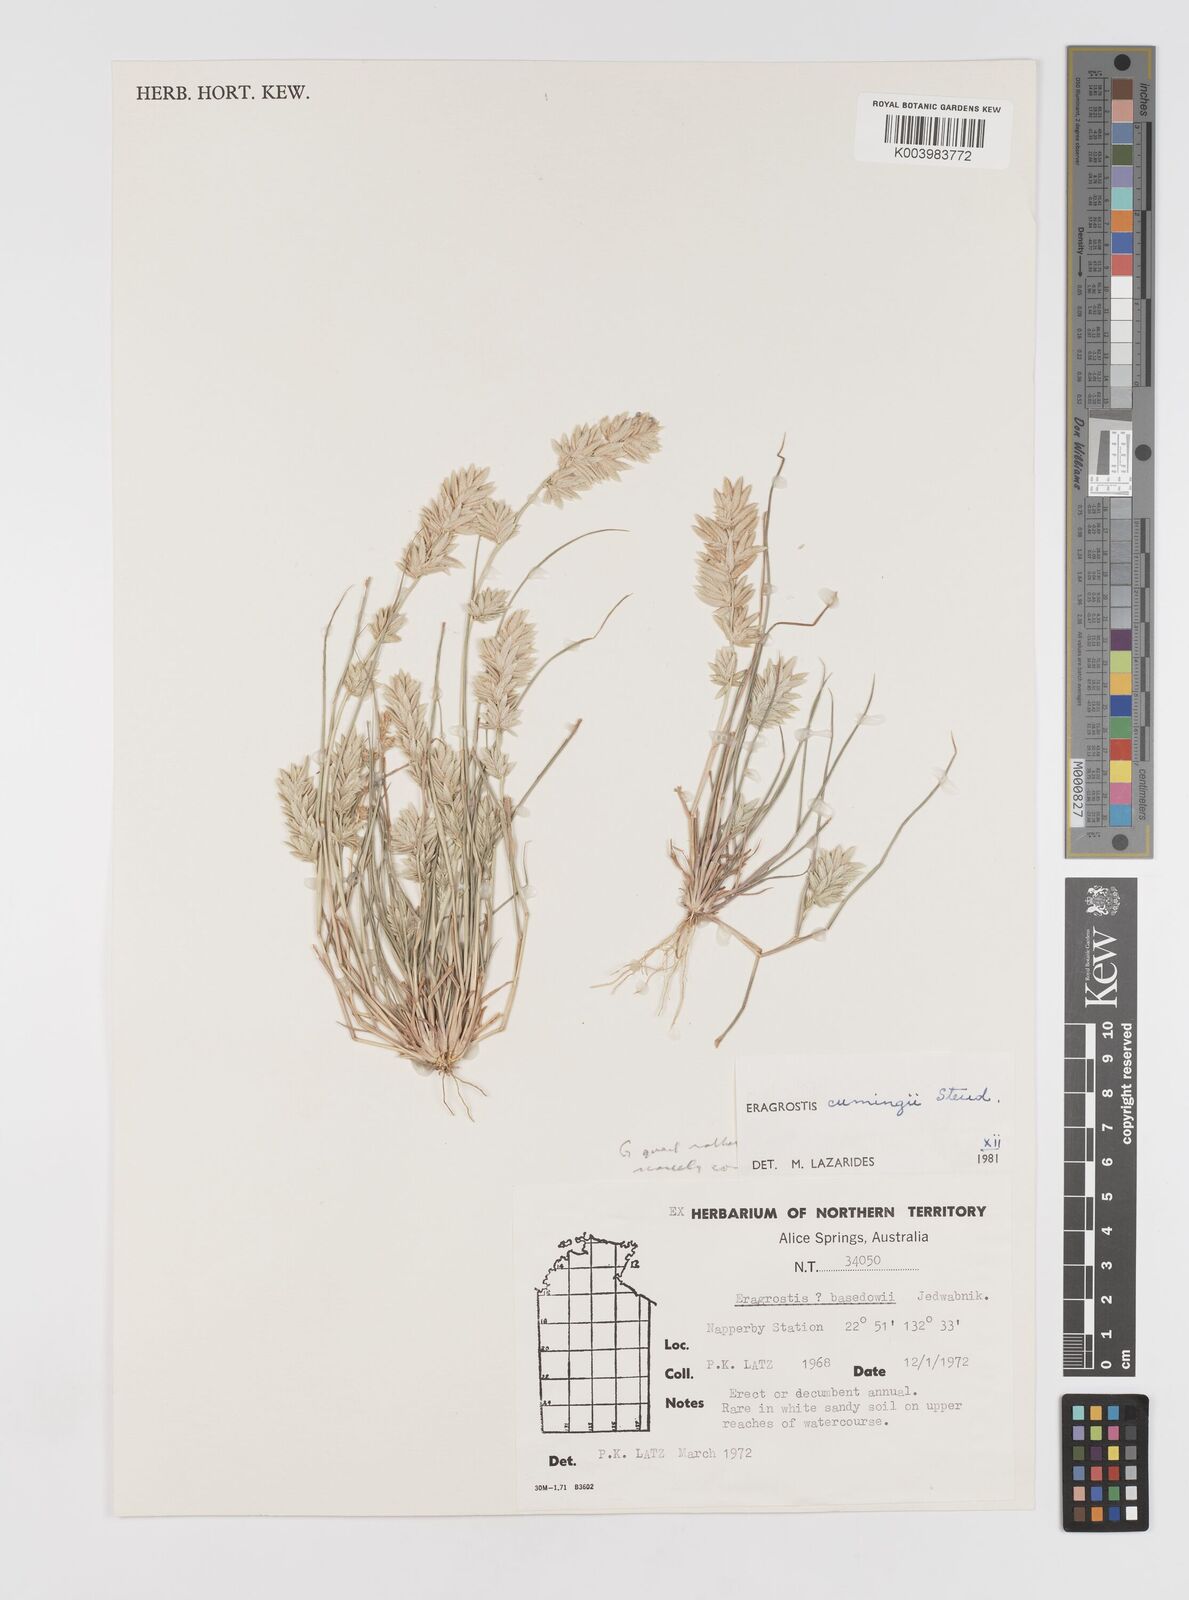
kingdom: Plantae
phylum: Tracheophyta
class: Liliopsida
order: Poales
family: Poaceae
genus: Eragrostis
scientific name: Eragrostis cumingii
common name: Cuming's lovegrass
